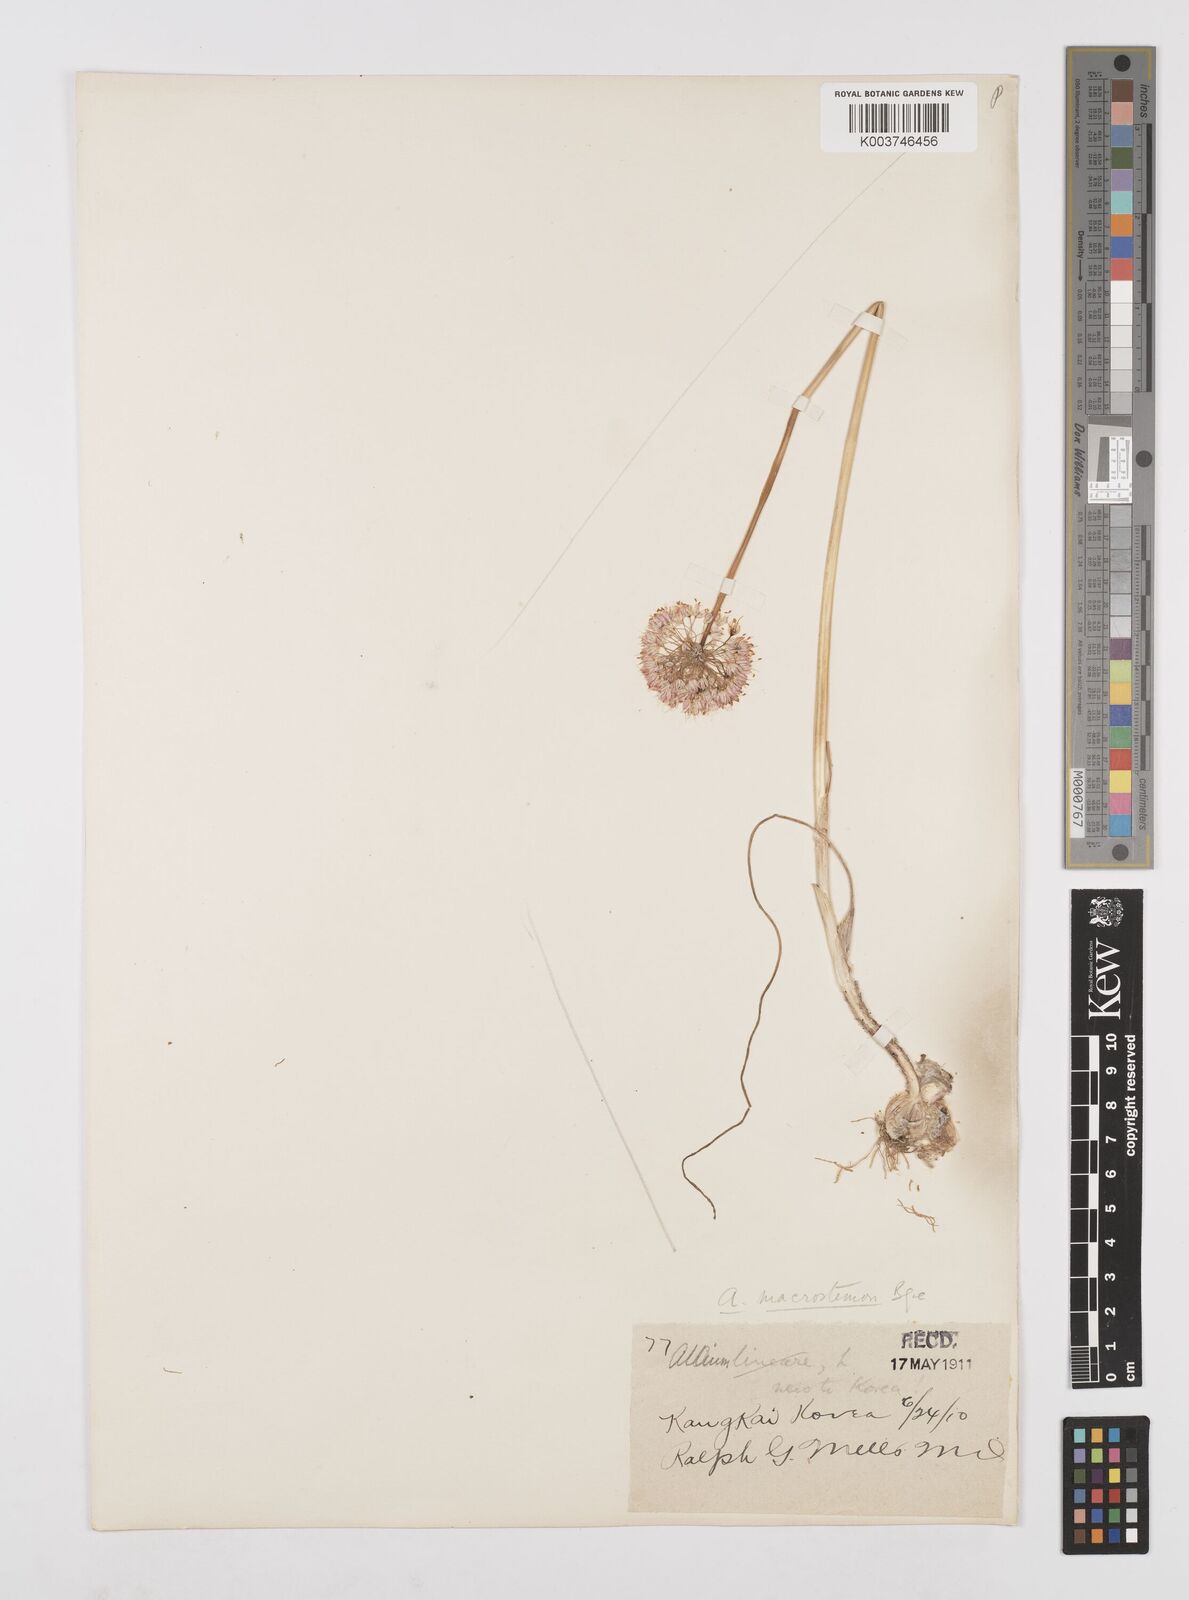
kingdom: Plantae
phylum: Tracheophyta
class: Liliopsida
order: Asparagales
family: Amaryllidaceae
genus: Allium
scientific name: Allium macrostemon
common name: Chinese garlic
